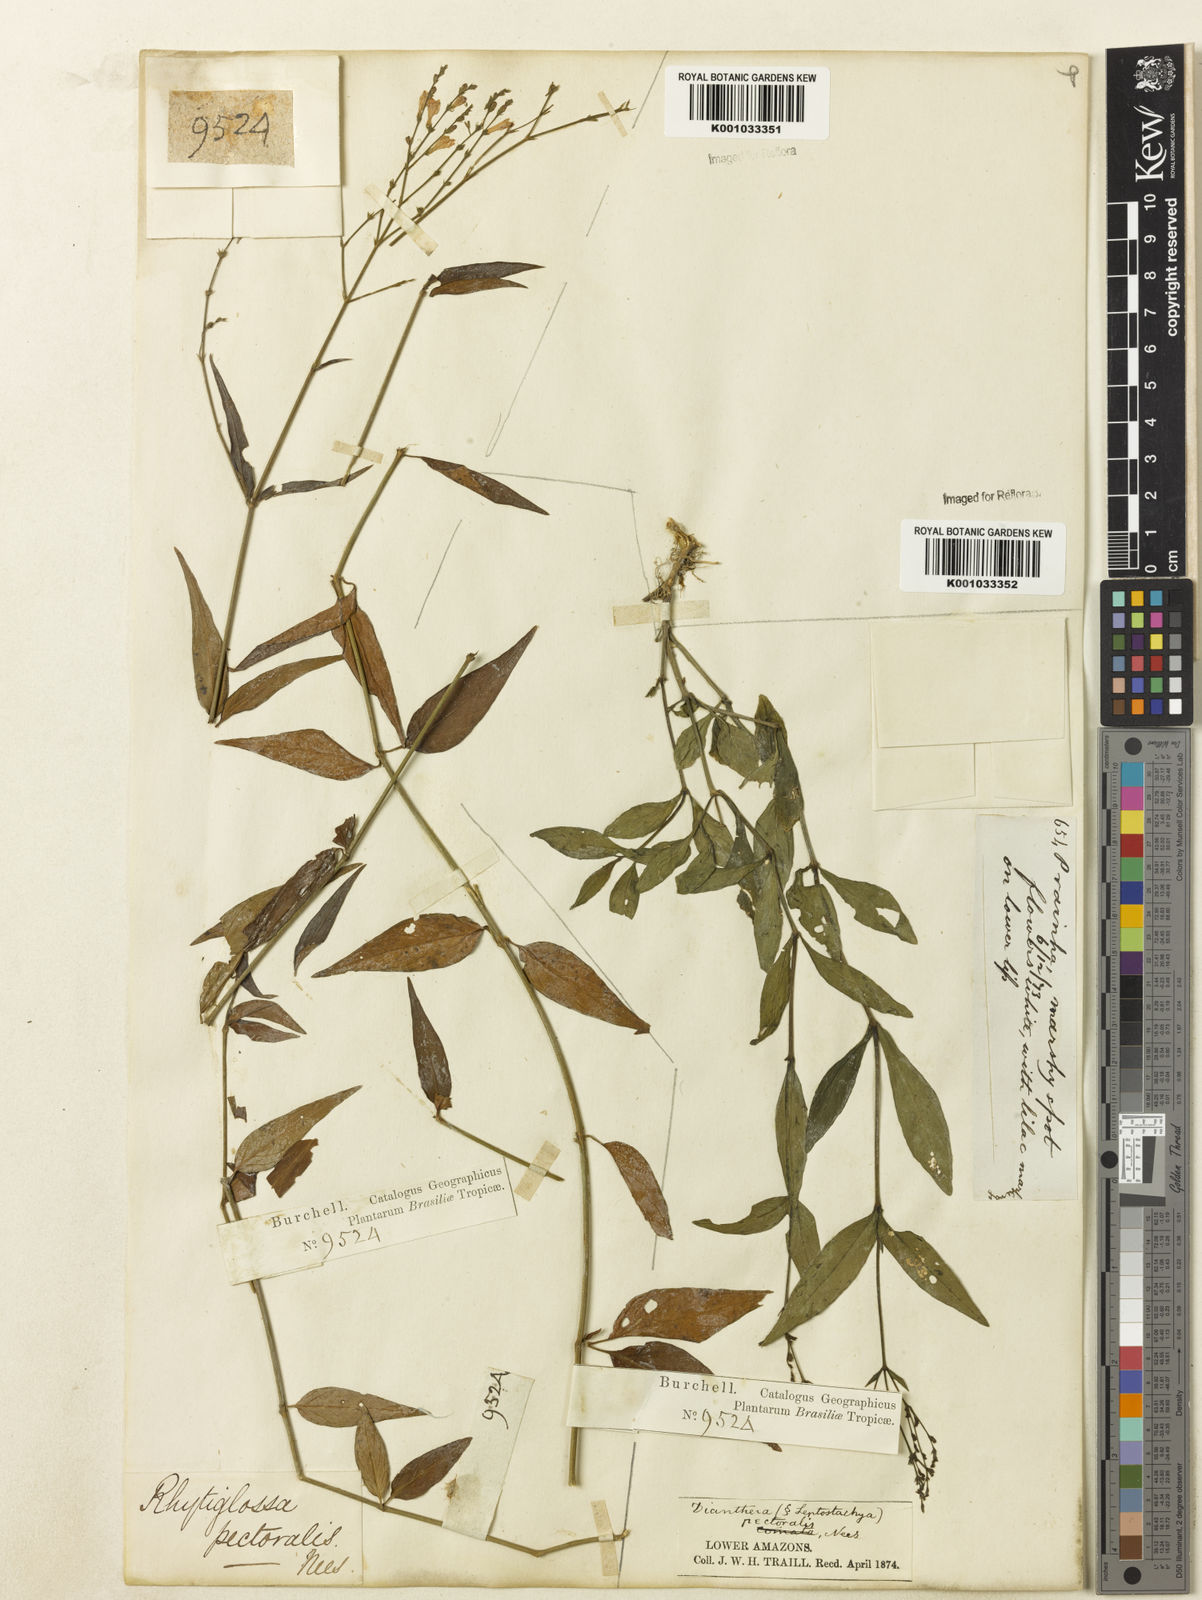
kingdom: Plantae
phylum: Tracheophyta
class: Magnoliopsida
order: Lamiales
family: Acanthaceae
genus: Dianthera
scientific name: Dianthera pectoralis
